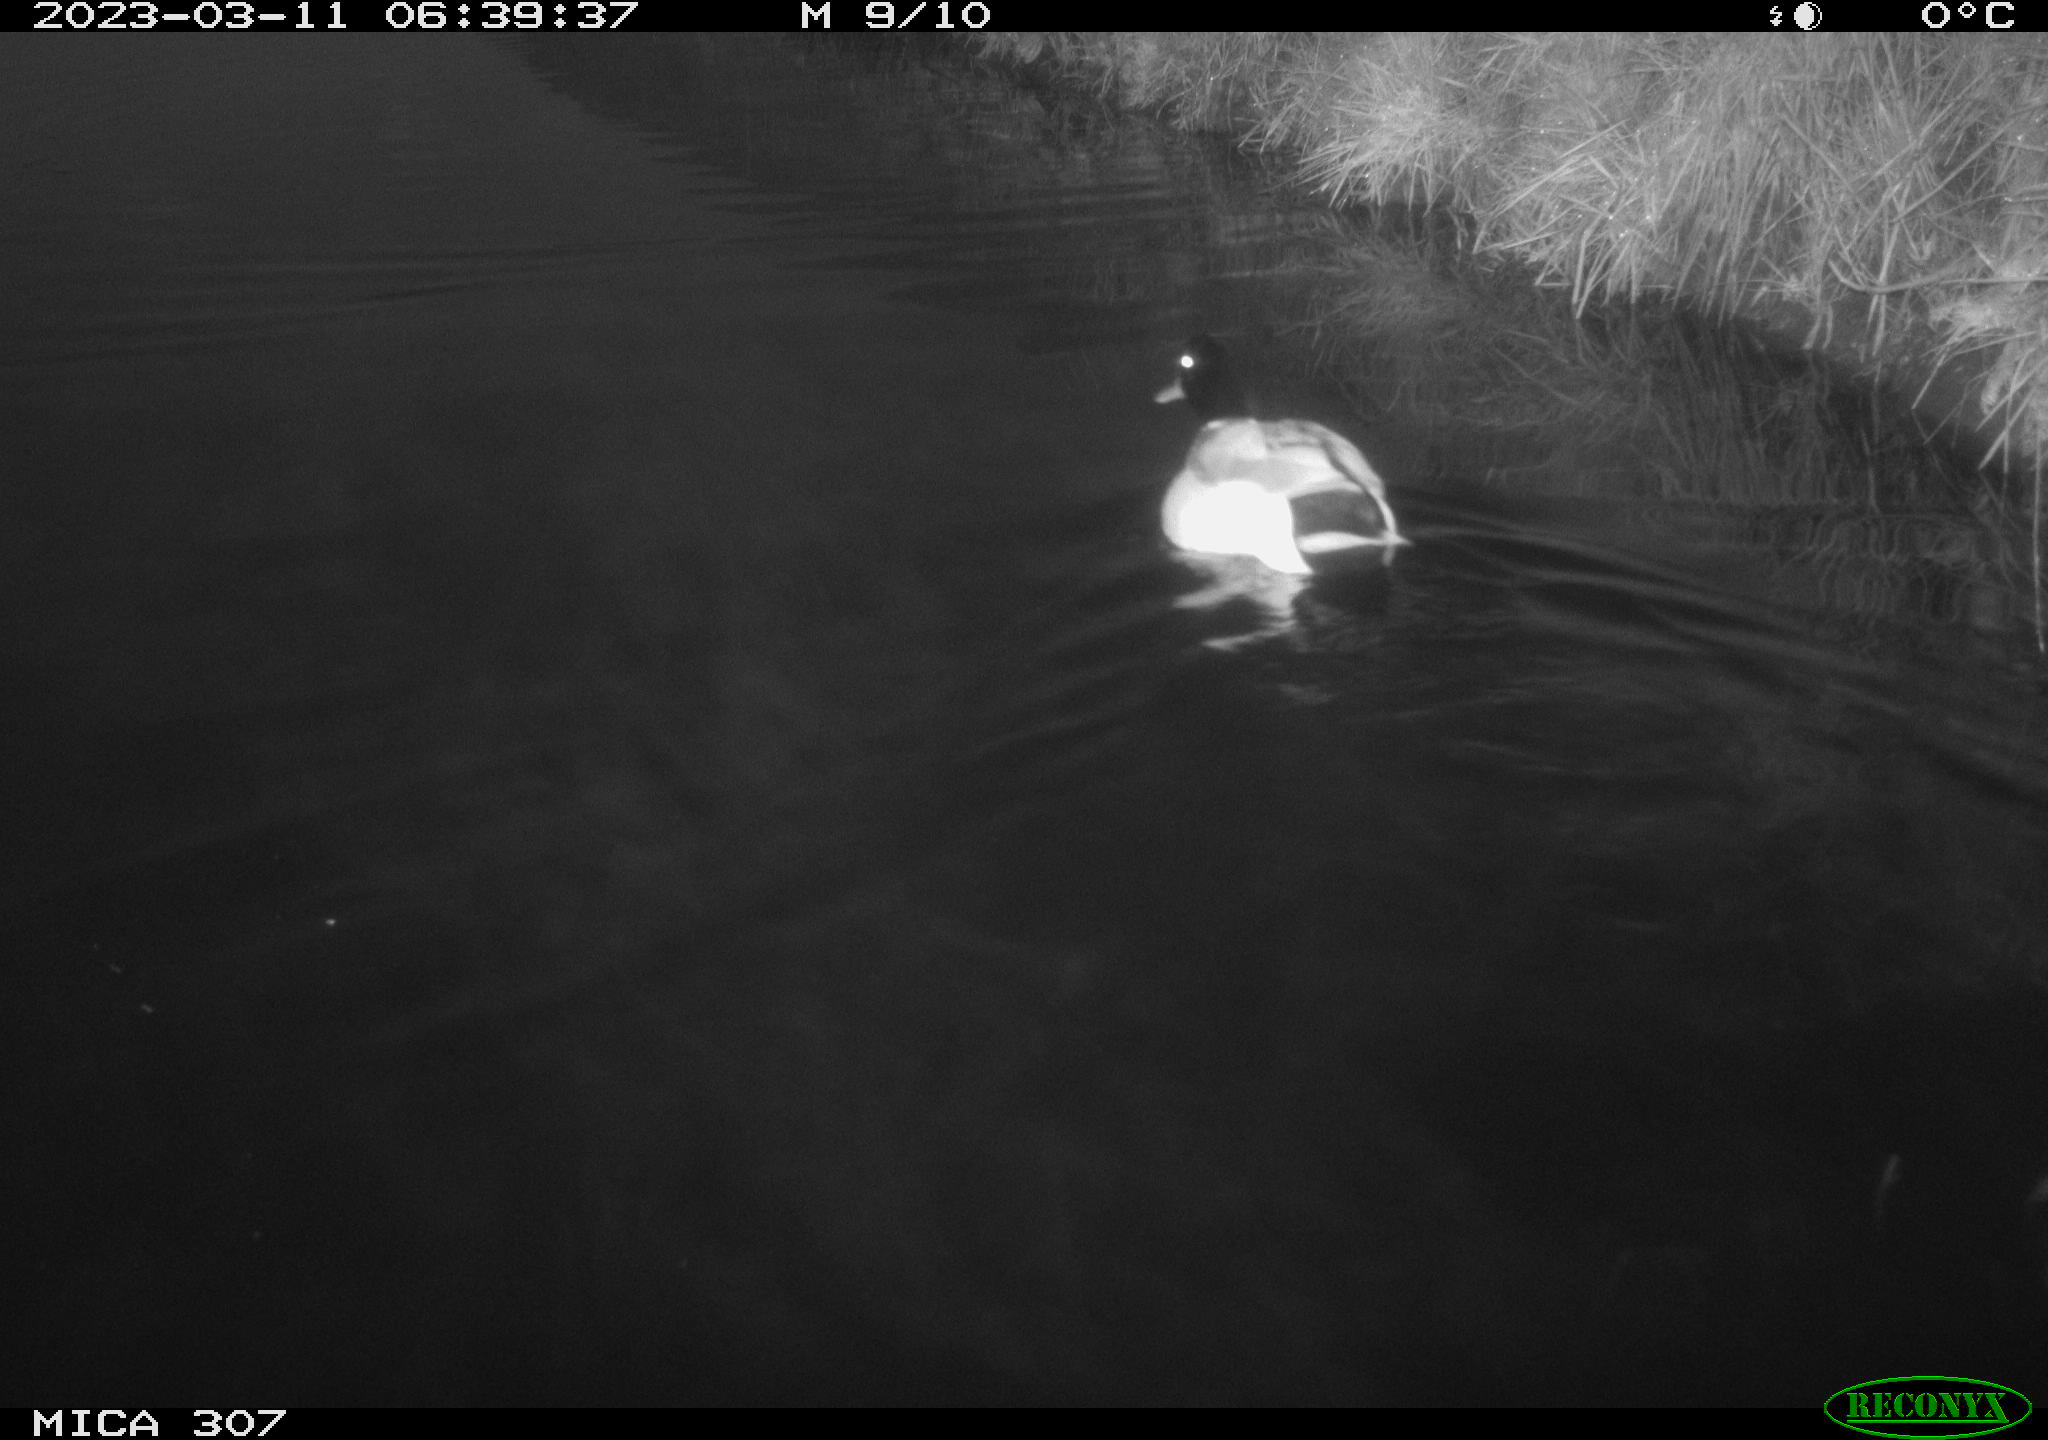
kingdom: Animalia
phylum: Chordata
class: Aves
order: Anseriformes
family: Anatidae
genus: Anas
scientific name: Anas
